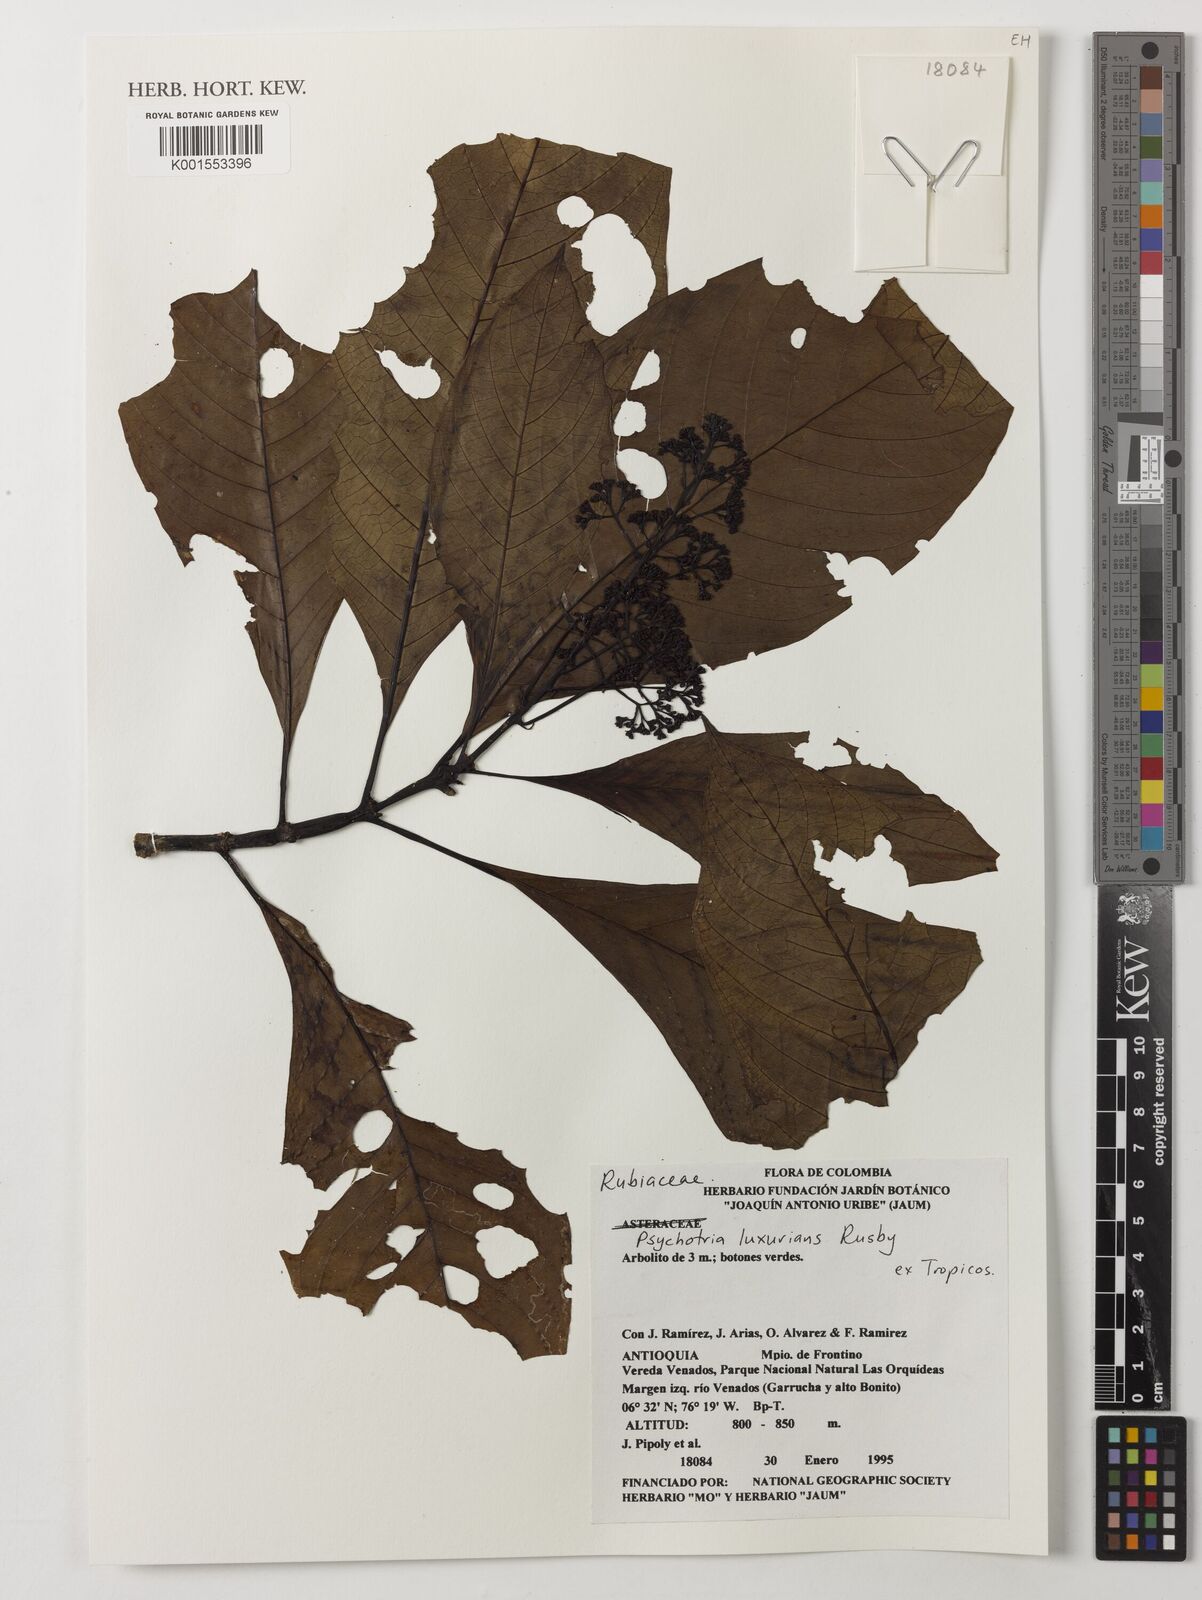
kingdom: Plantae
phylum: Tracheophyta
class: Magnoliopsida
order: Gentianales
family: Rubiaceae
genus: Palicourea
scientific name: Palicourea luxurians
